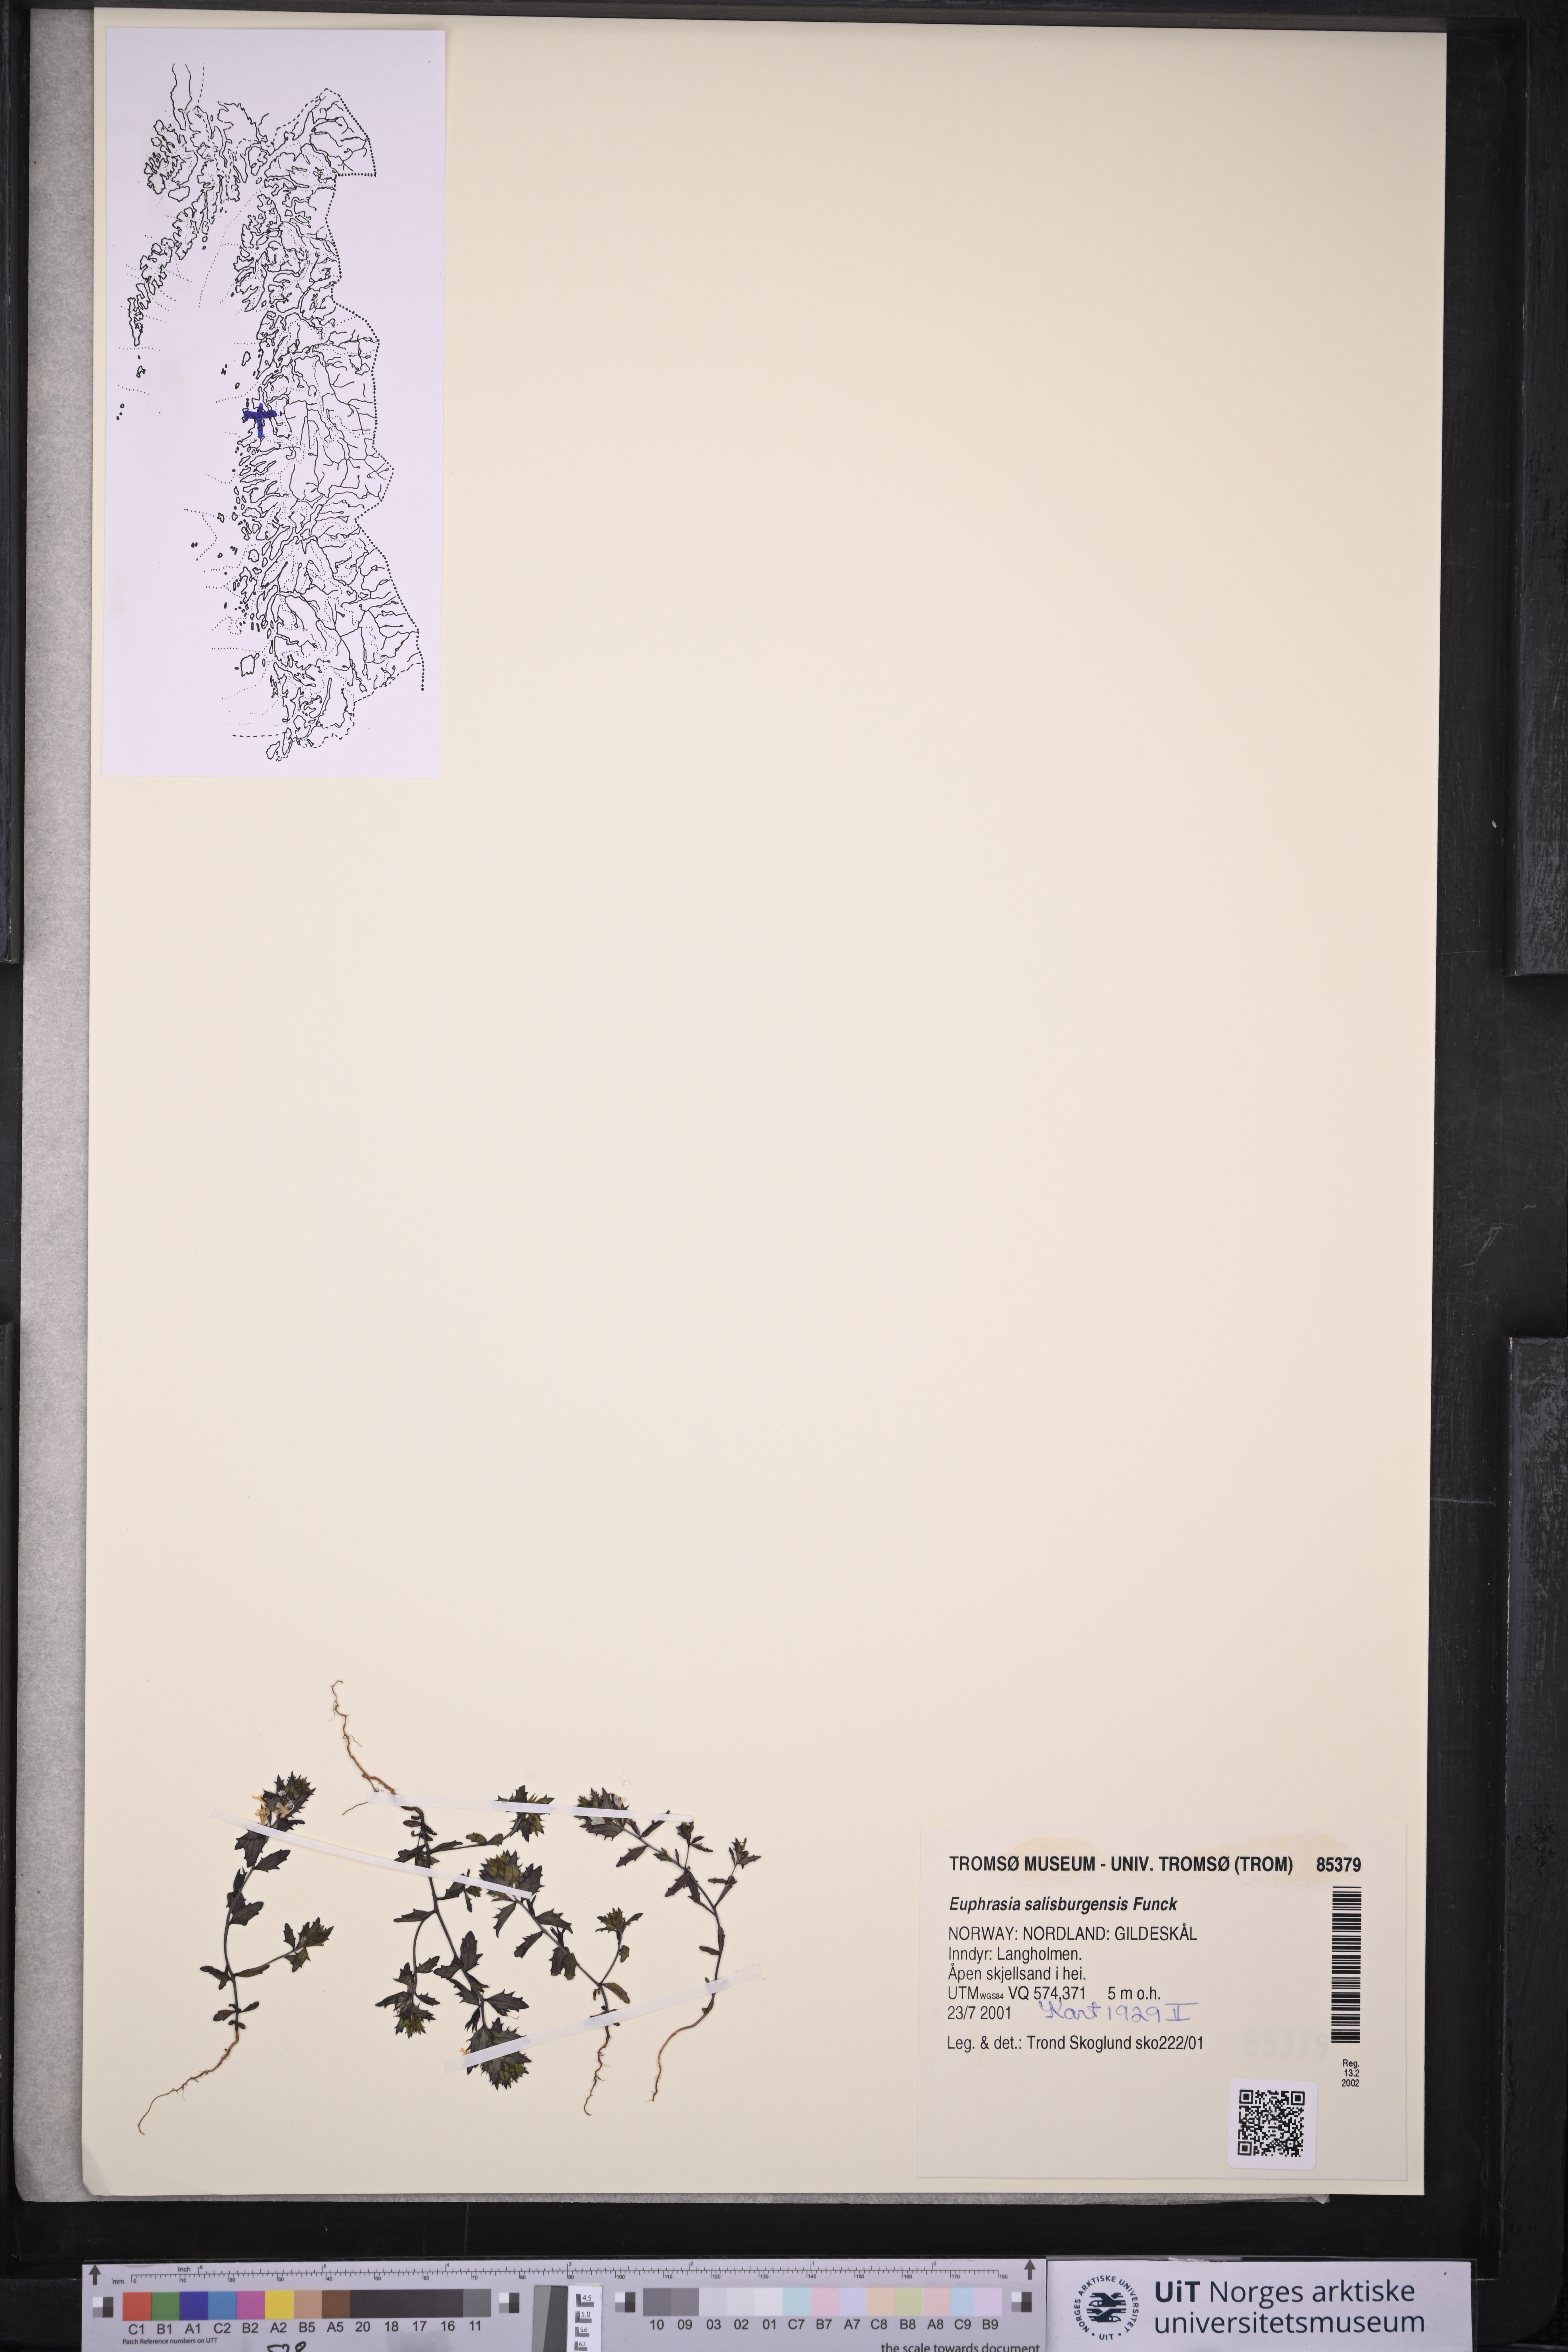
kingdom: Plantae
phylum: Tracheophyta
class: Magnoliopsida
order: Lamiales
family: Orobanchaceae
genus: Euphrasia
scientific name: Euphrasia salisburgensis
